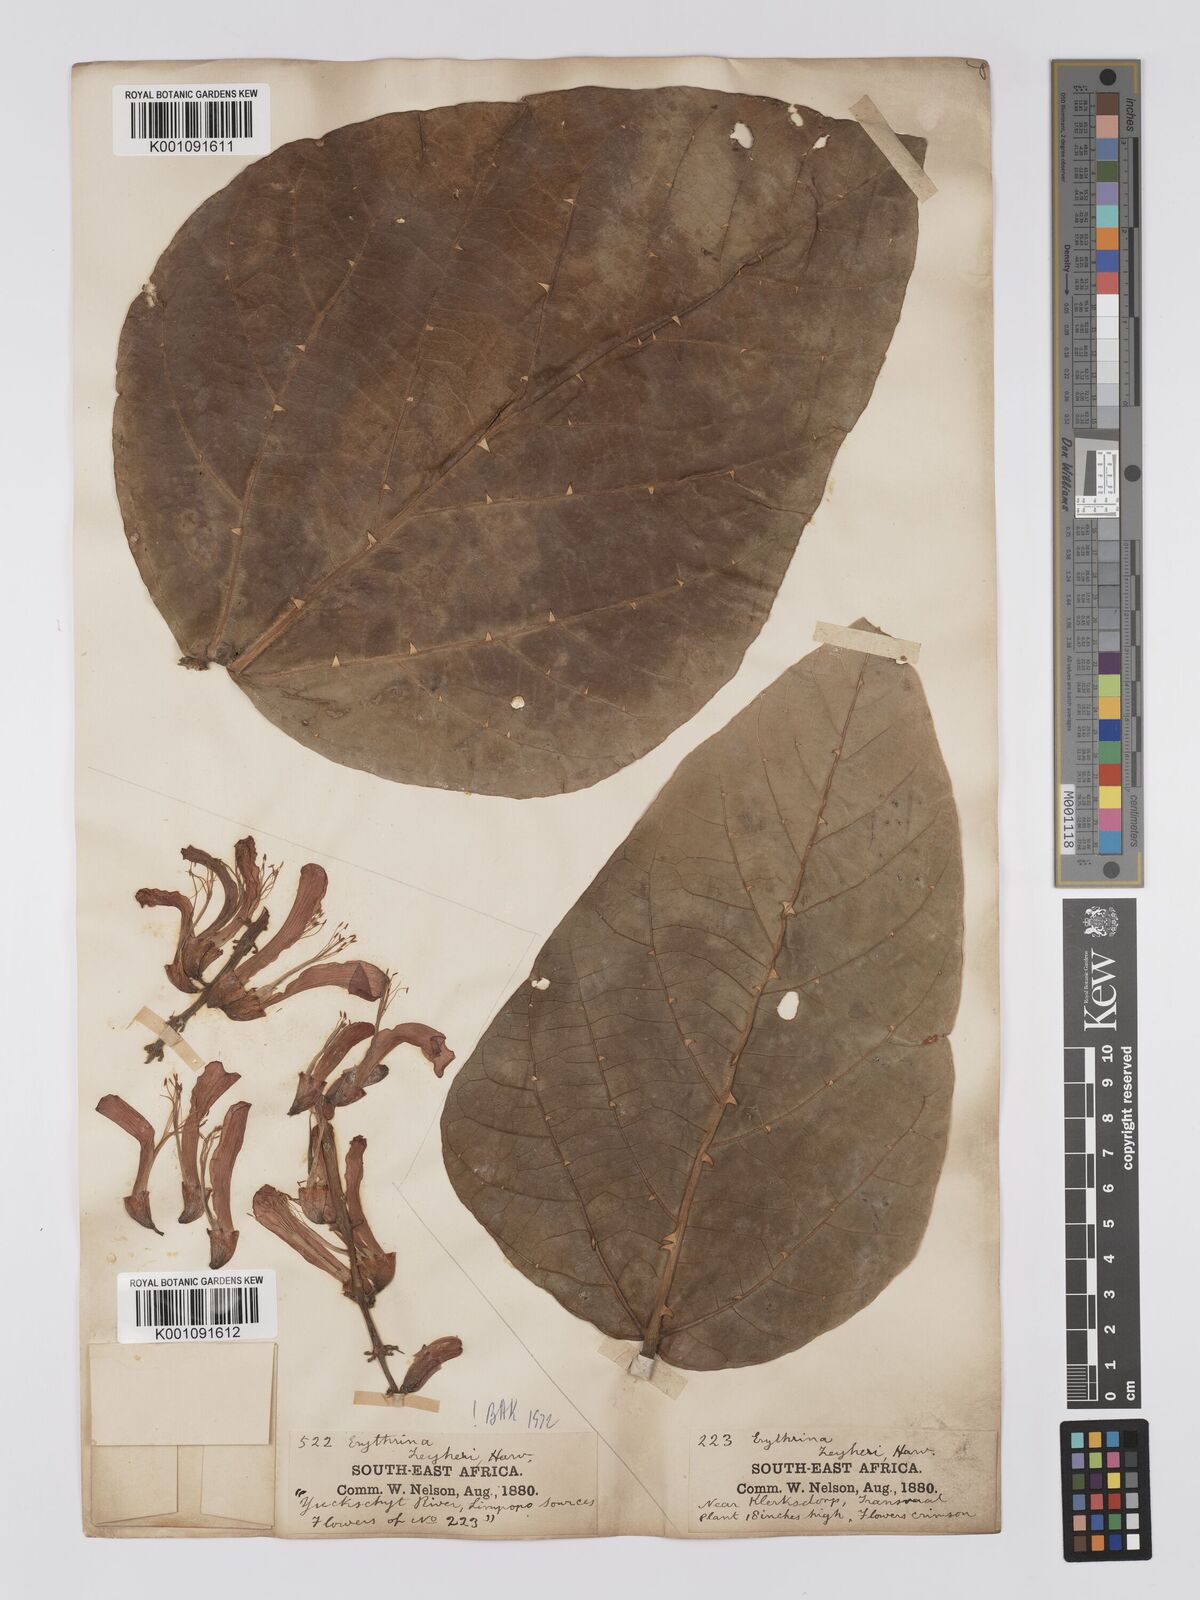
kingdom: Plantae
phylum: Tracheophyta
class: Magnoliopsida
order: Fabales
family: Fabaceae
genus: Erythrina
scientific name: Erythrina zeyheri
